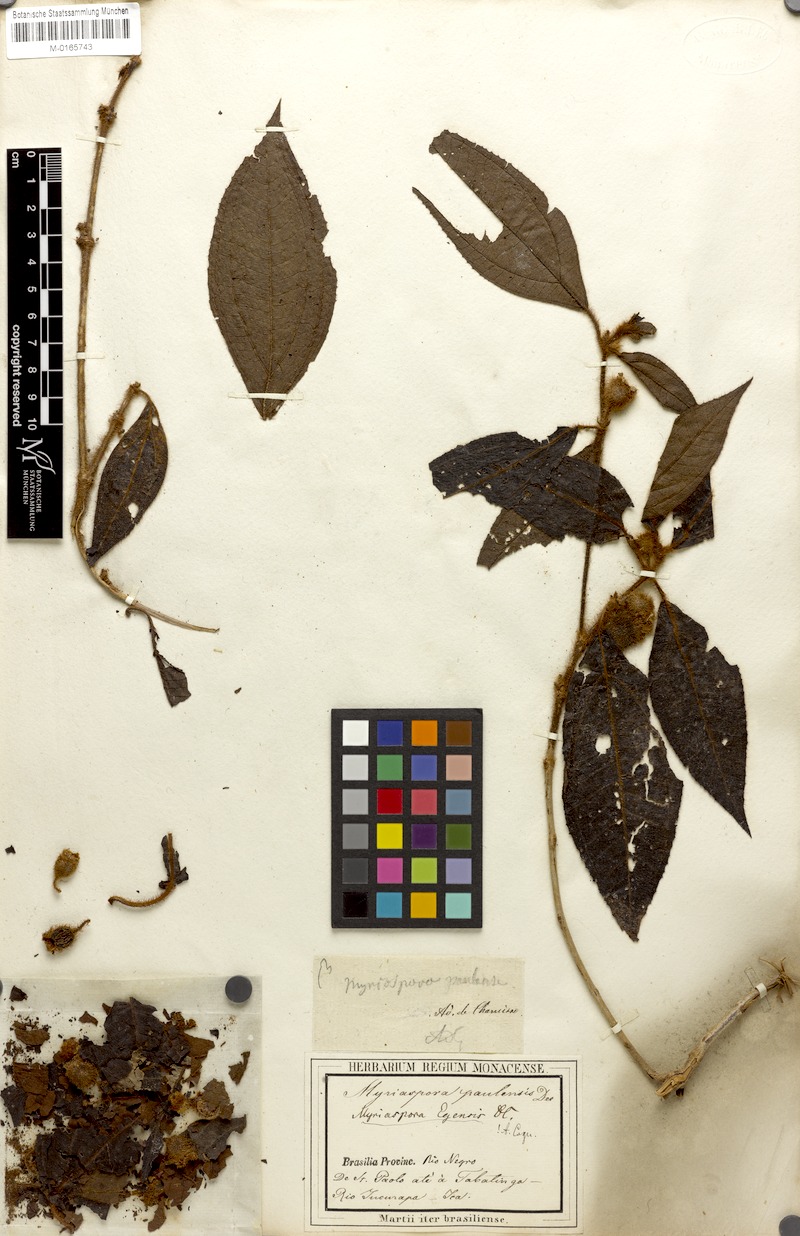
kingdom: Plantae
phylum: Tracheophyta
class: Magnoliopsida
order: Myrtales
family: Melastomataceae
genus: Bellucia
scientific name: Bellucia egensis
